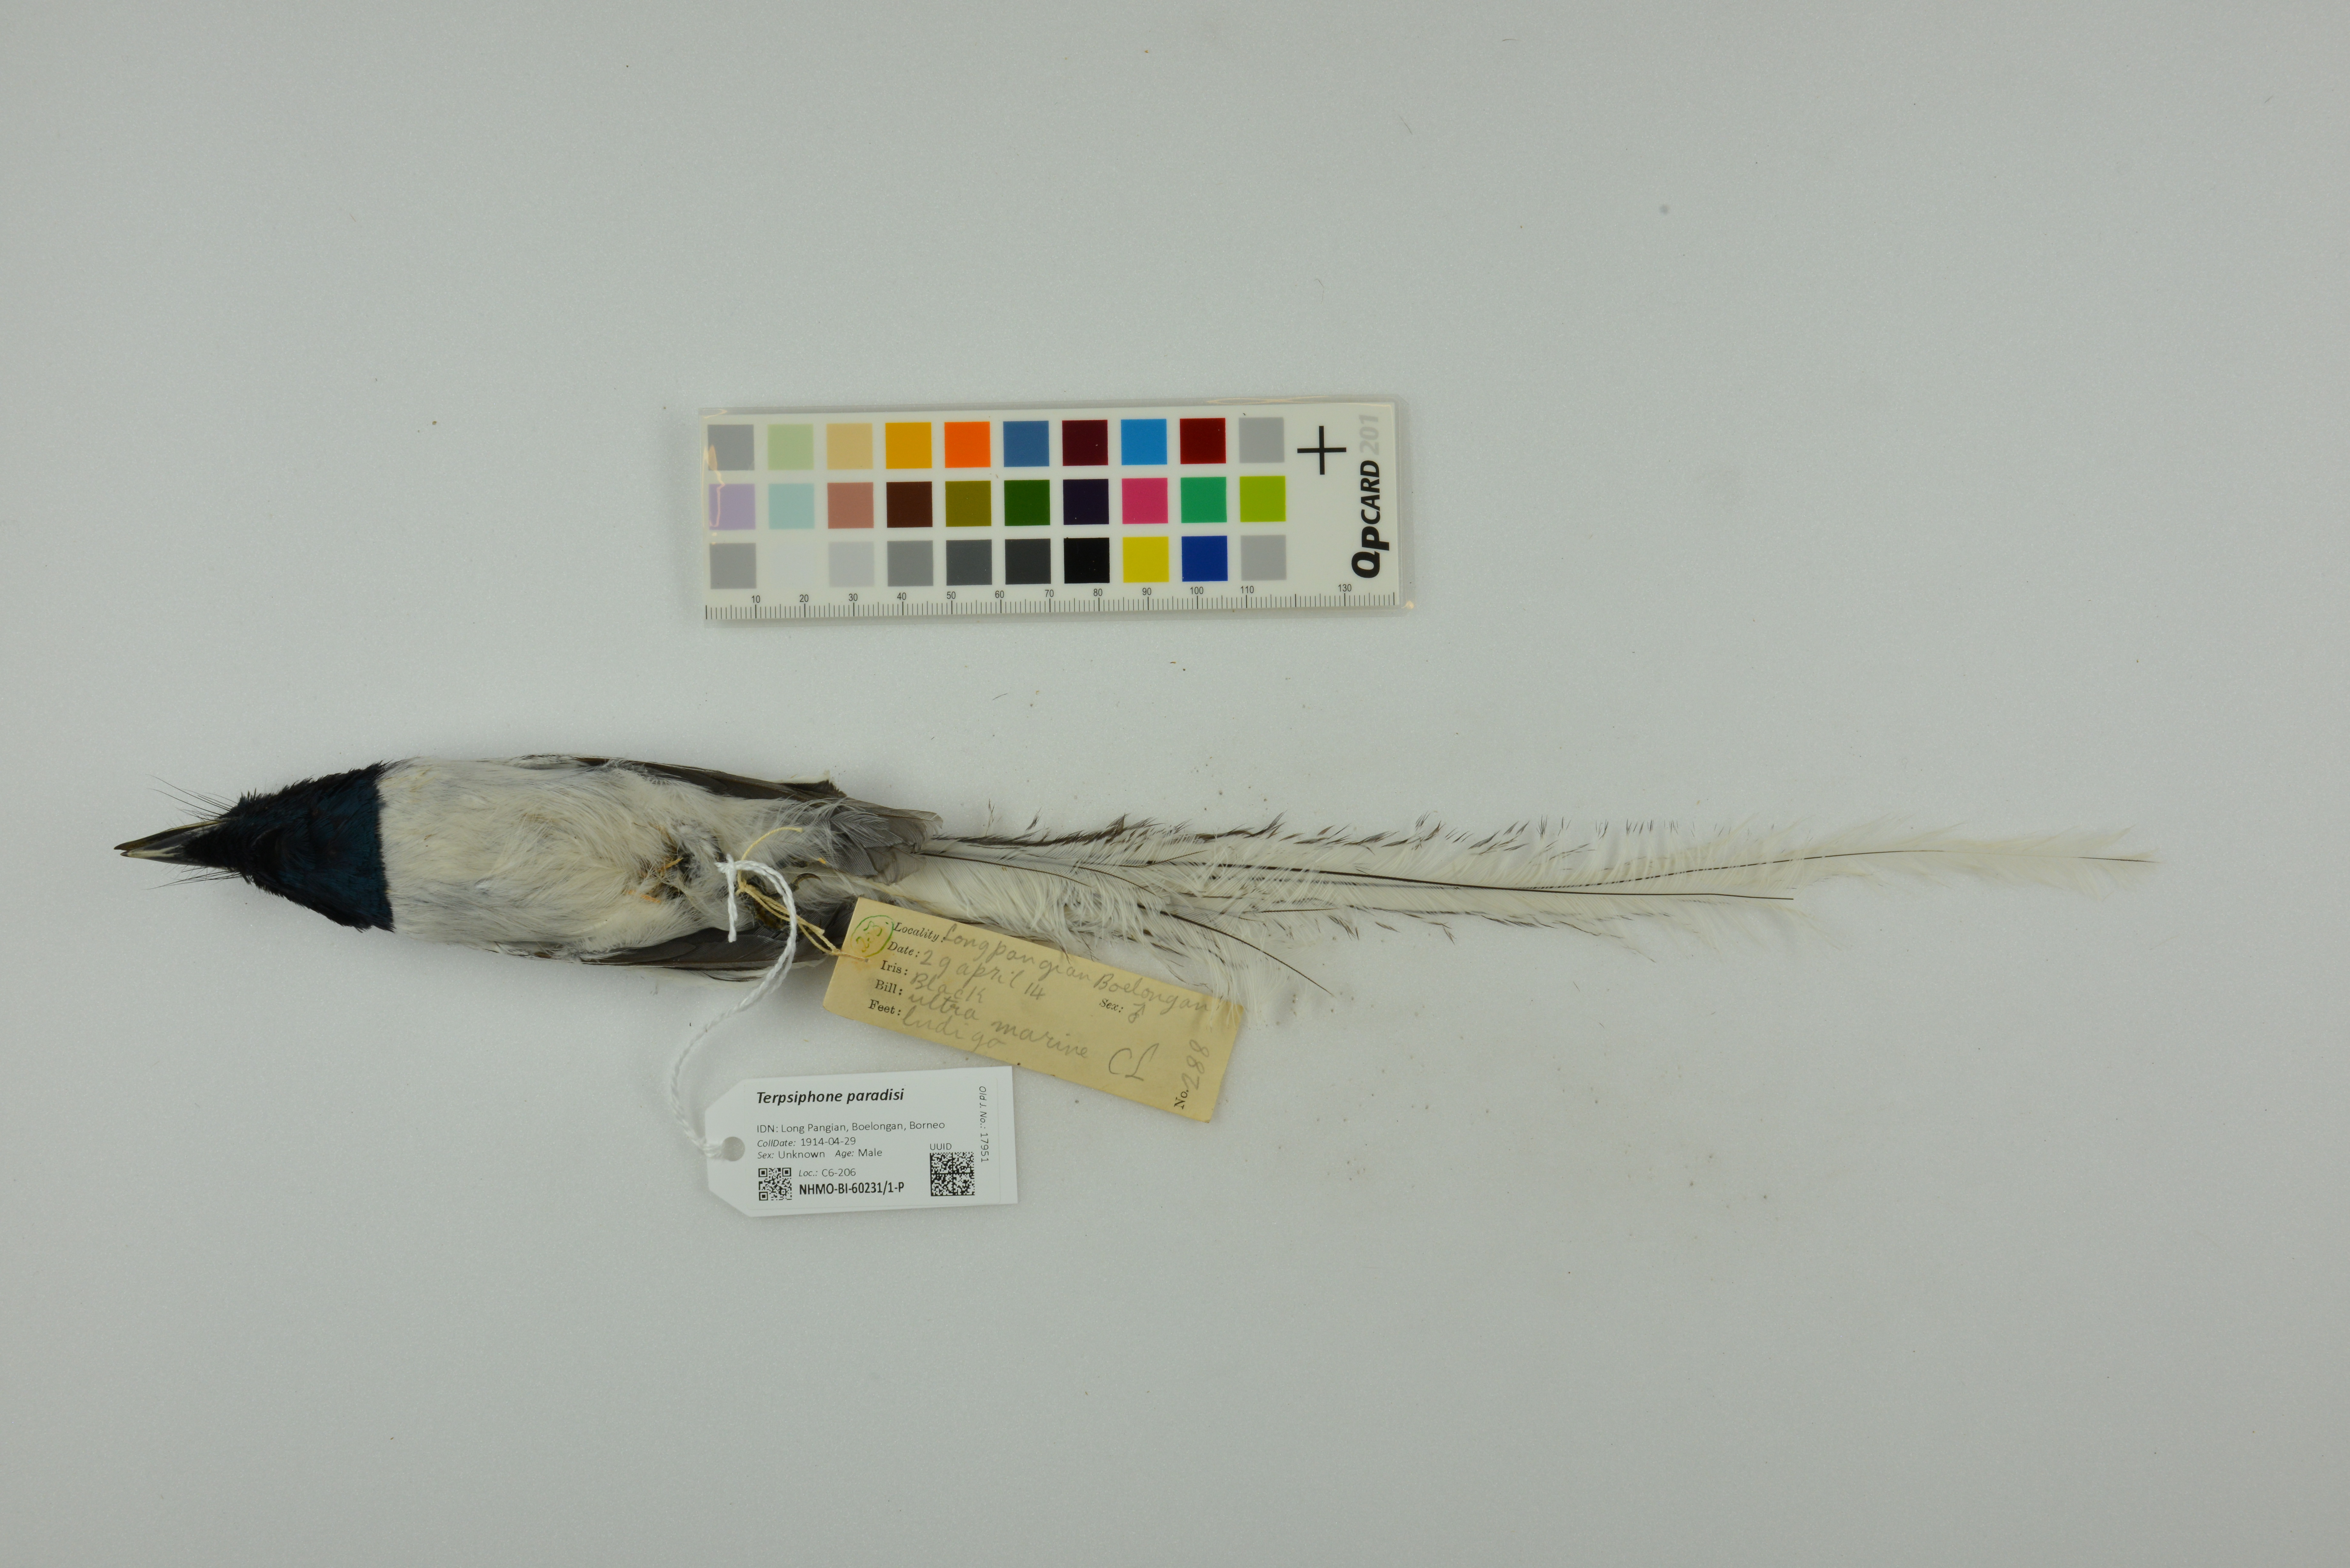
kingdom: Animalia
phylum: Chordata
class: Aves
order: Passeriformes
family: Monarchidae
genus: Terpsiphone
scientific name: Terpsiphone paradisi
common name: Indian paradise flycatcher
